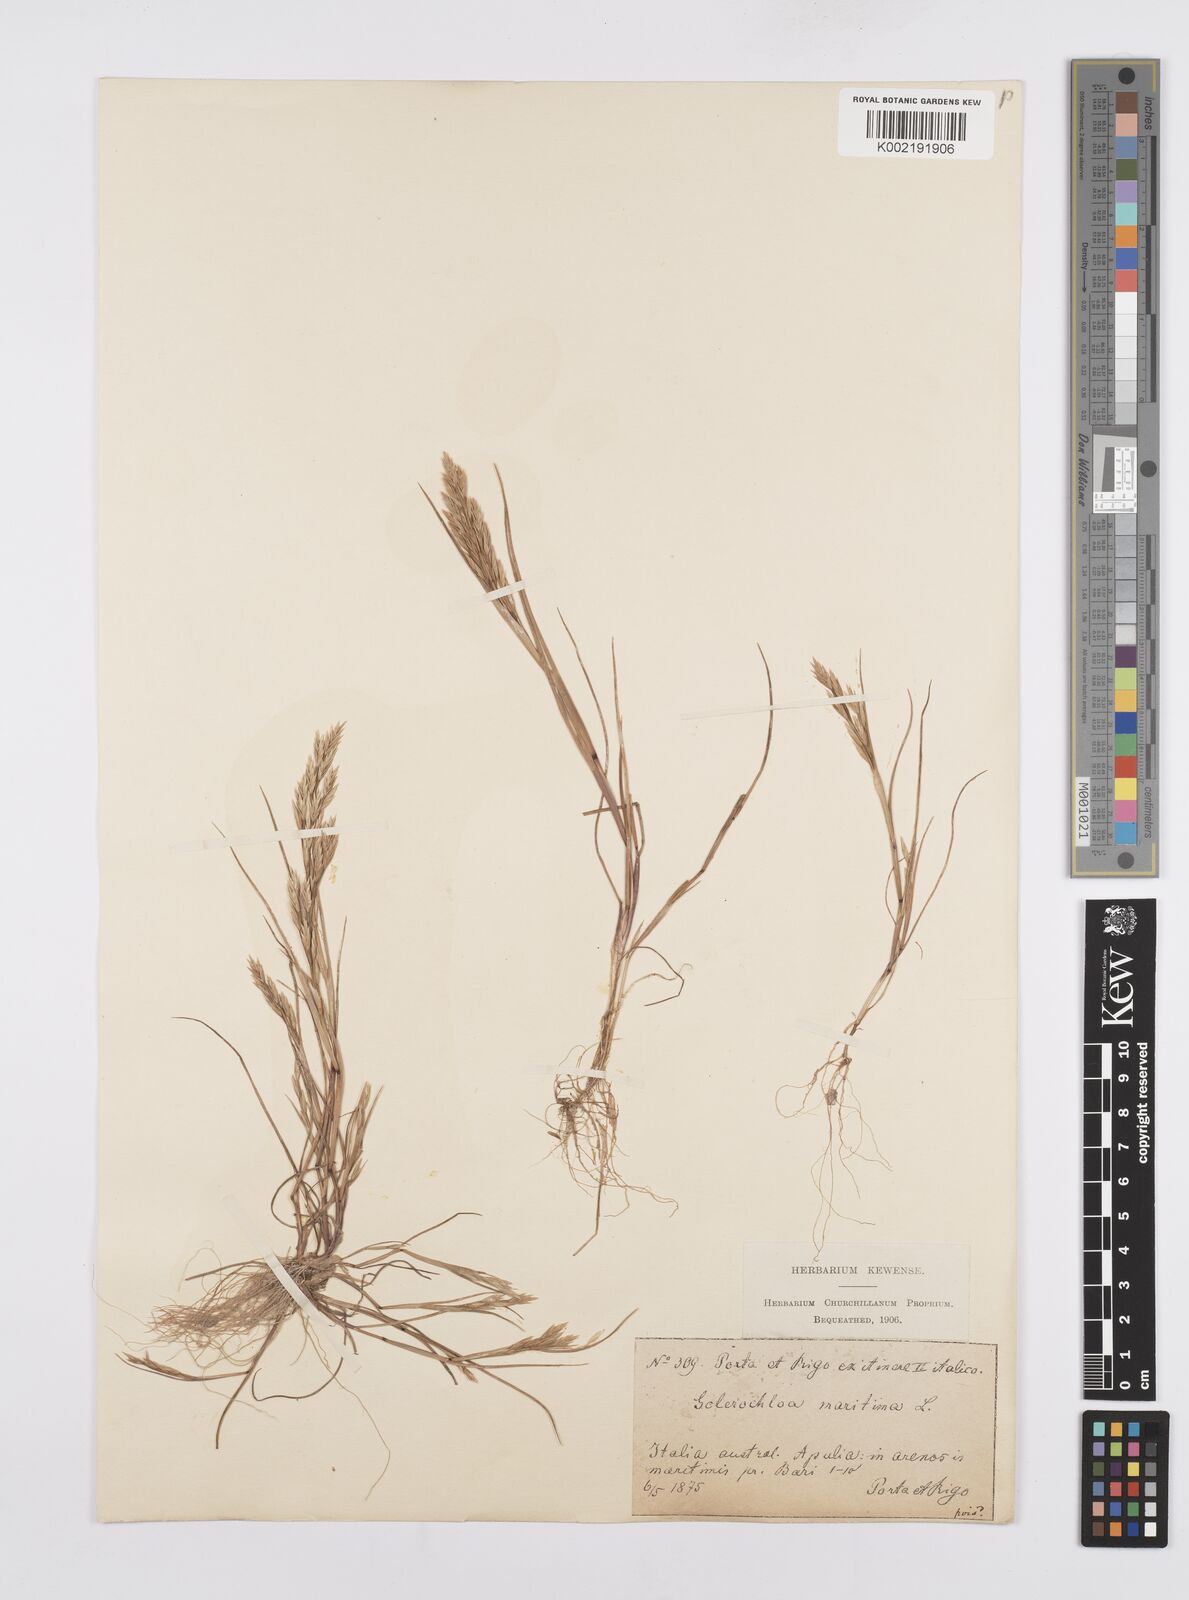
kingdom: Plantae
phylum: Tracheophyta
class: Liliopsida
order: Poales
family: Poaceae
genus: Cutandia
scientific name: Cutandia maritima
